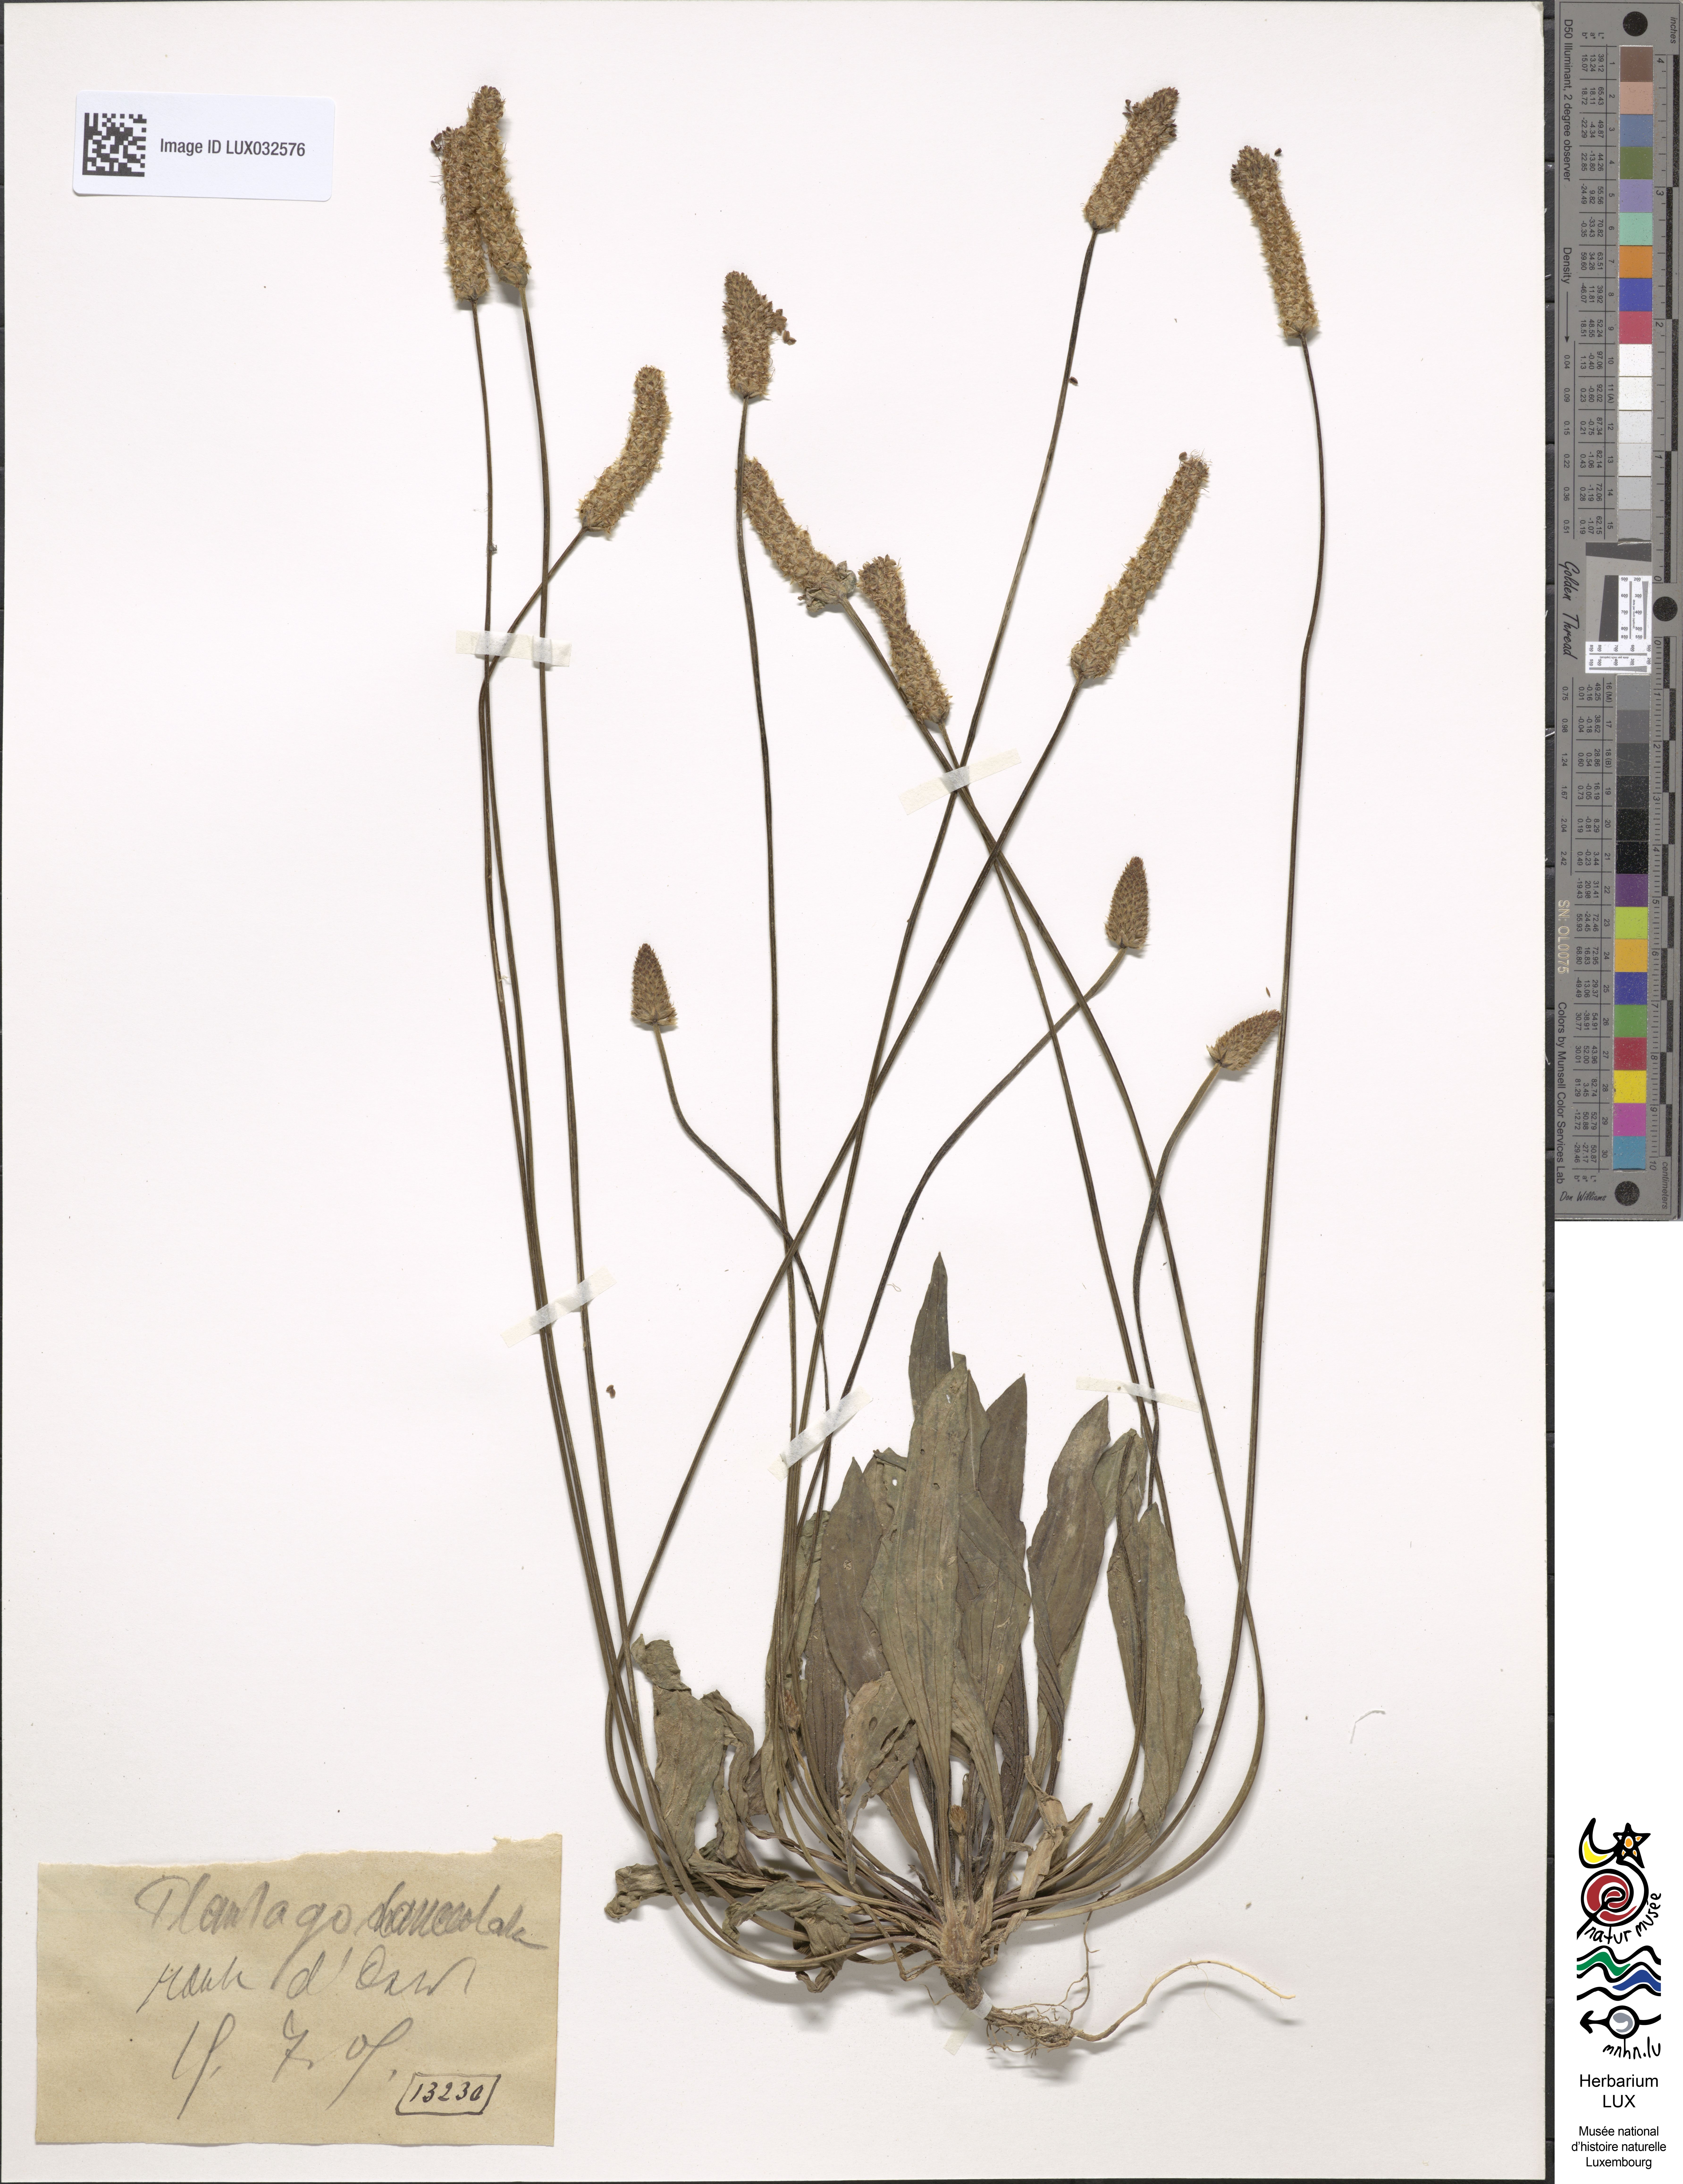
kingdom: Plantae
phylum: Tracheophyta
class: Magnoliopsida
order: Lamiales
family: Plantaginaceae
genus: Plantago
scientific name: Plantago lanceolata
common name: Ribwort plantain
